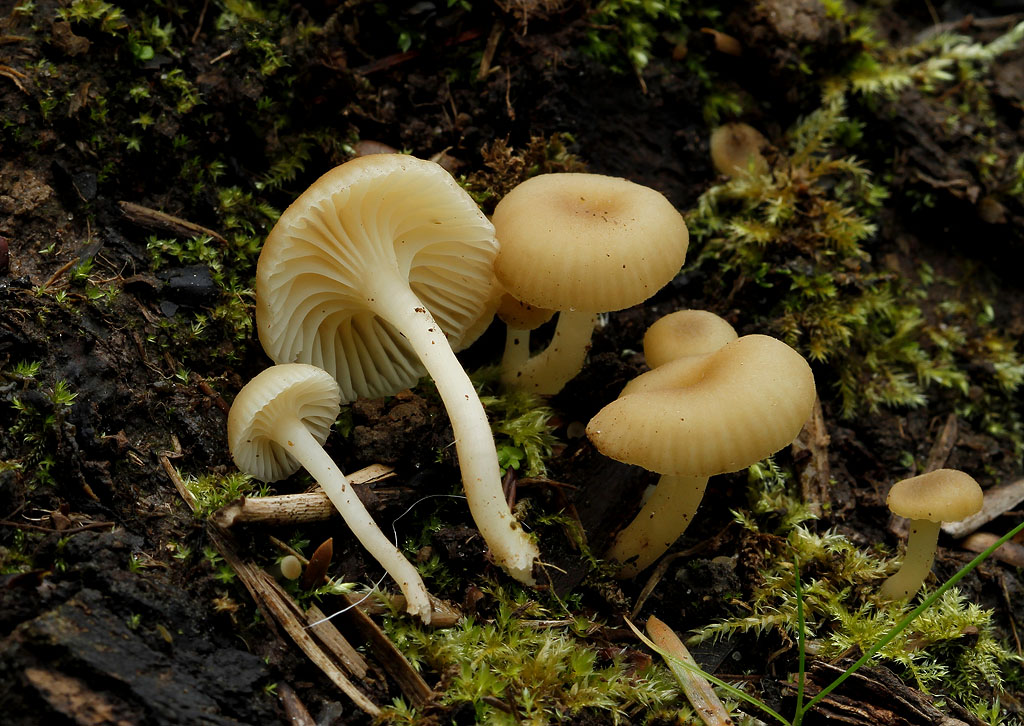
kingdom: Fungi
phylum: Basidiomycota
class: Agaricomycetes
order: Agaricales
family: Hygrophoraceae
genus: Chrysomphalina
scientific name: Chrysomphalina grossula
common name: stød-gyldenblad
